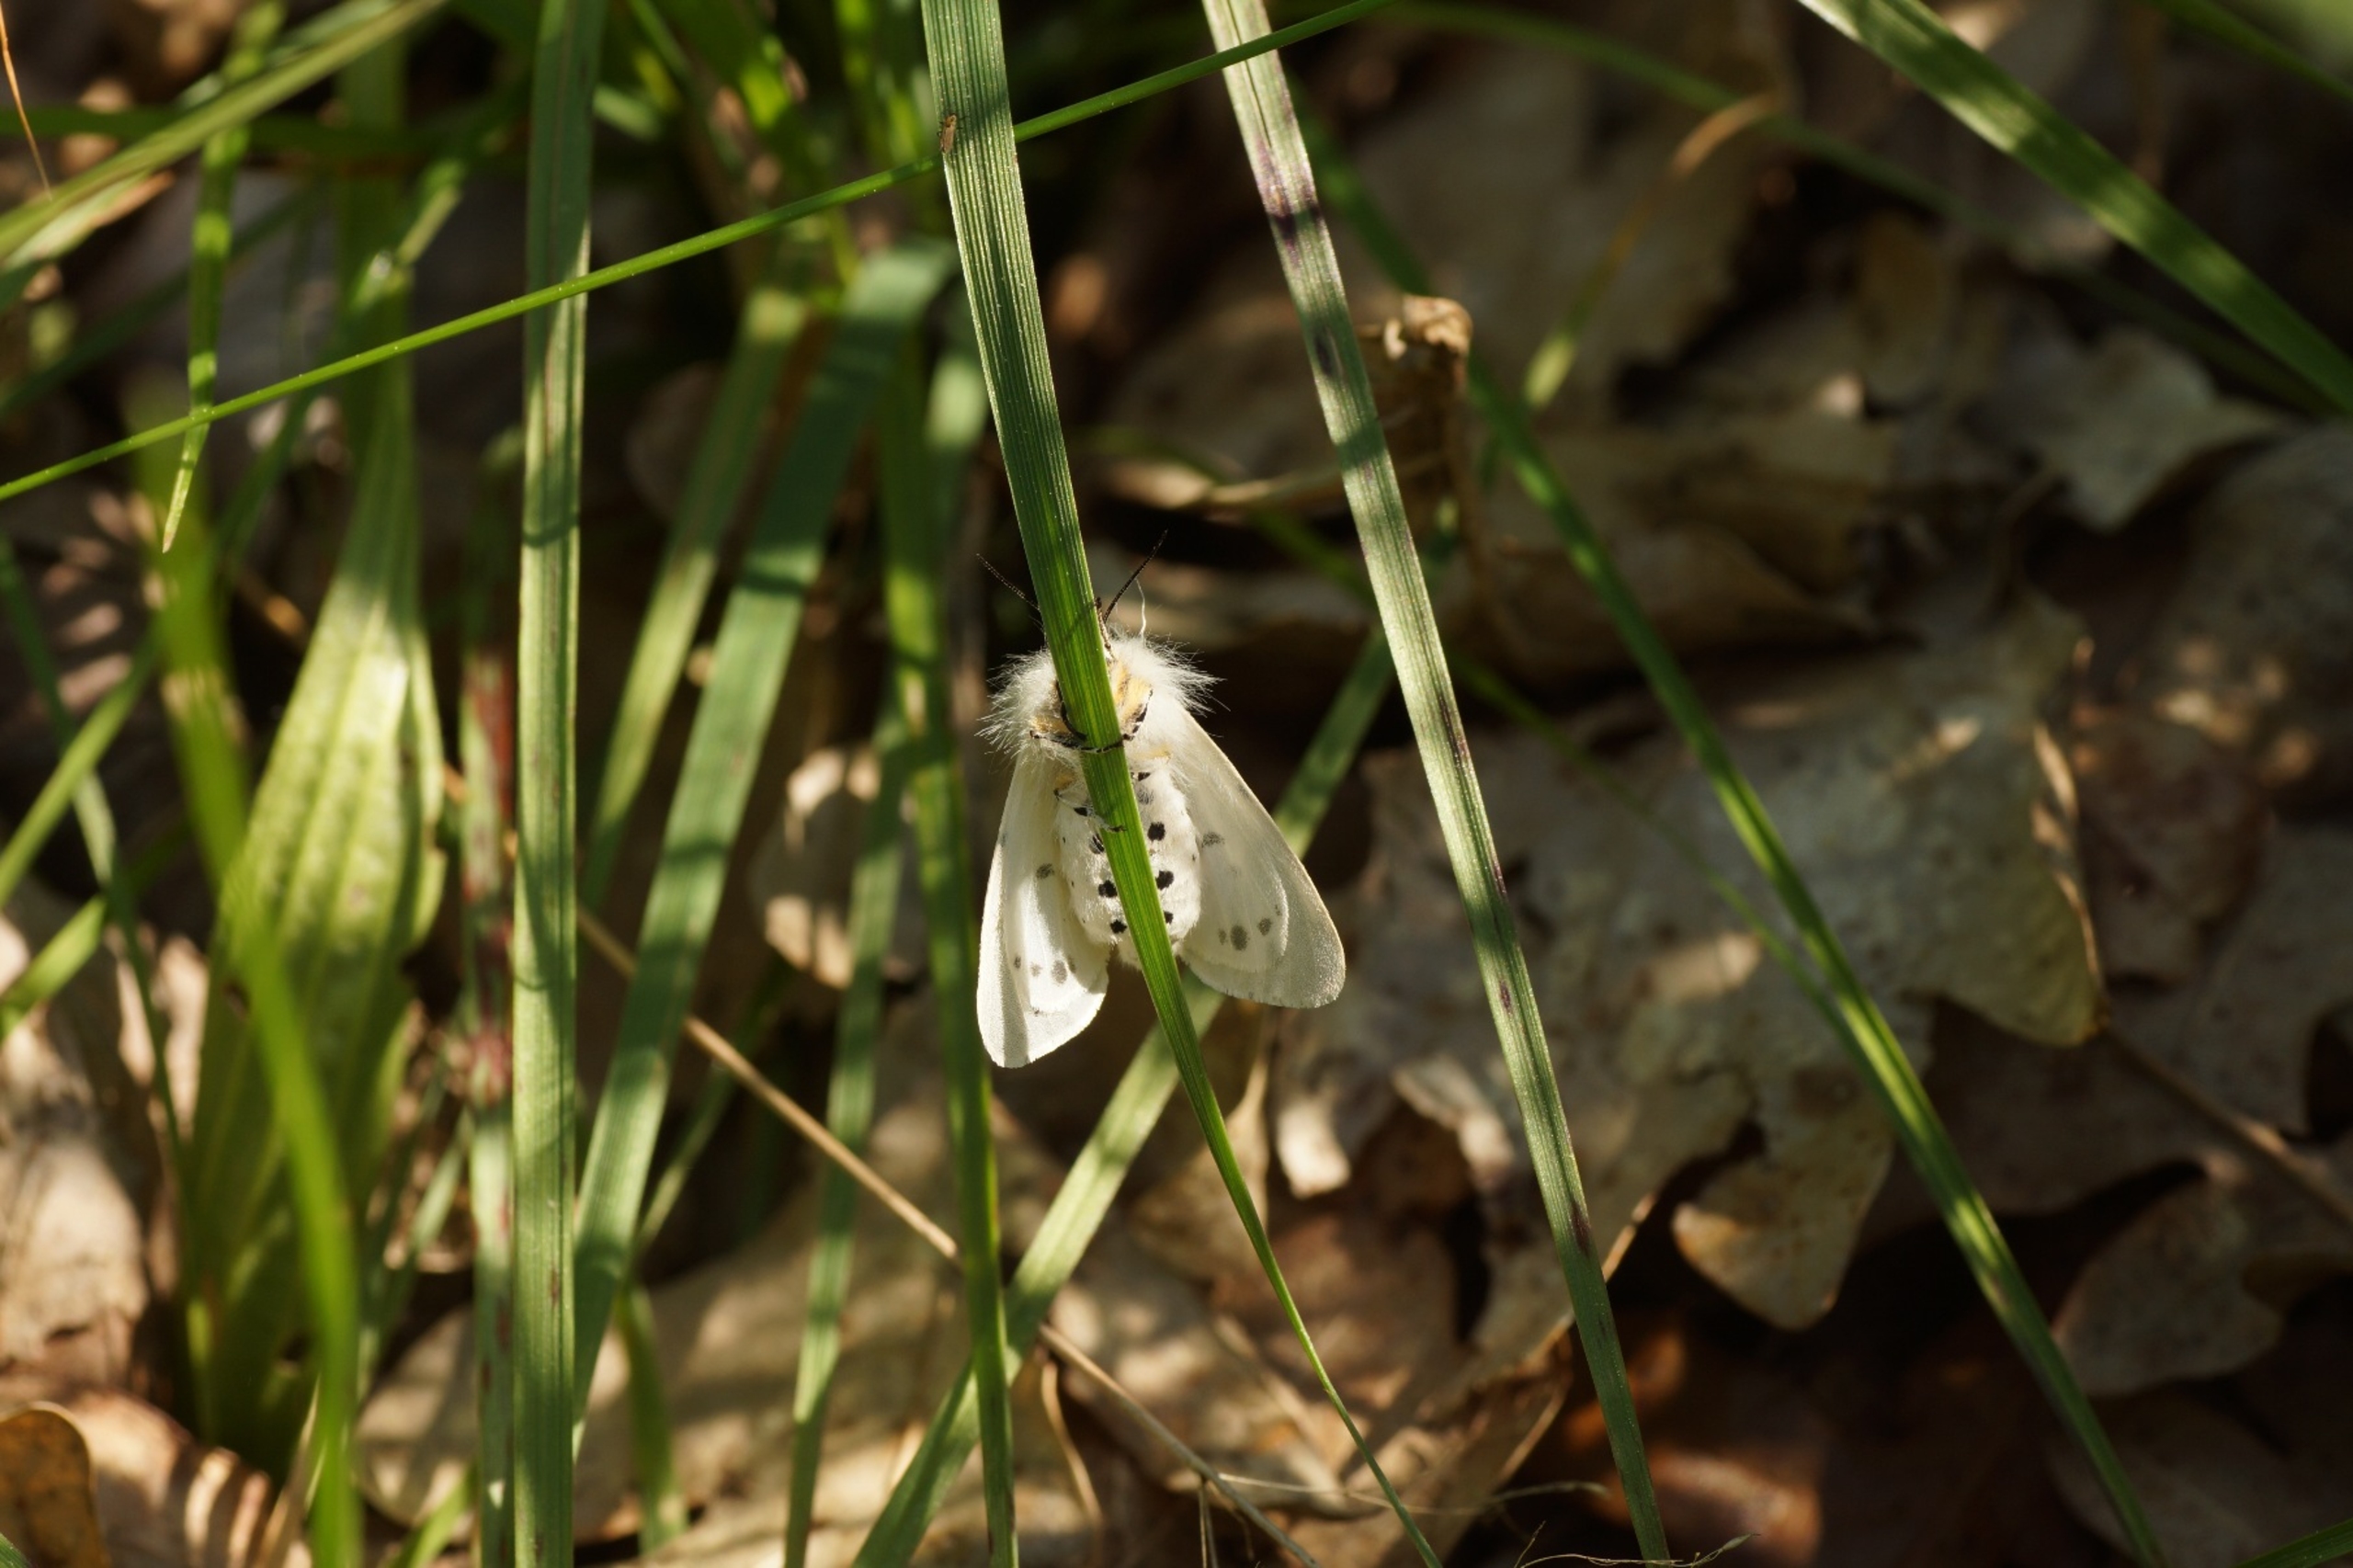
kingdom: Animalia
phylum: Arthropoda
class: Insecta
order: Lepidoptera
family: Erebidae
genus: Spilosoma
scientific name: Spilosoma lubricipeda
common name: Almindelig tigerspinder
